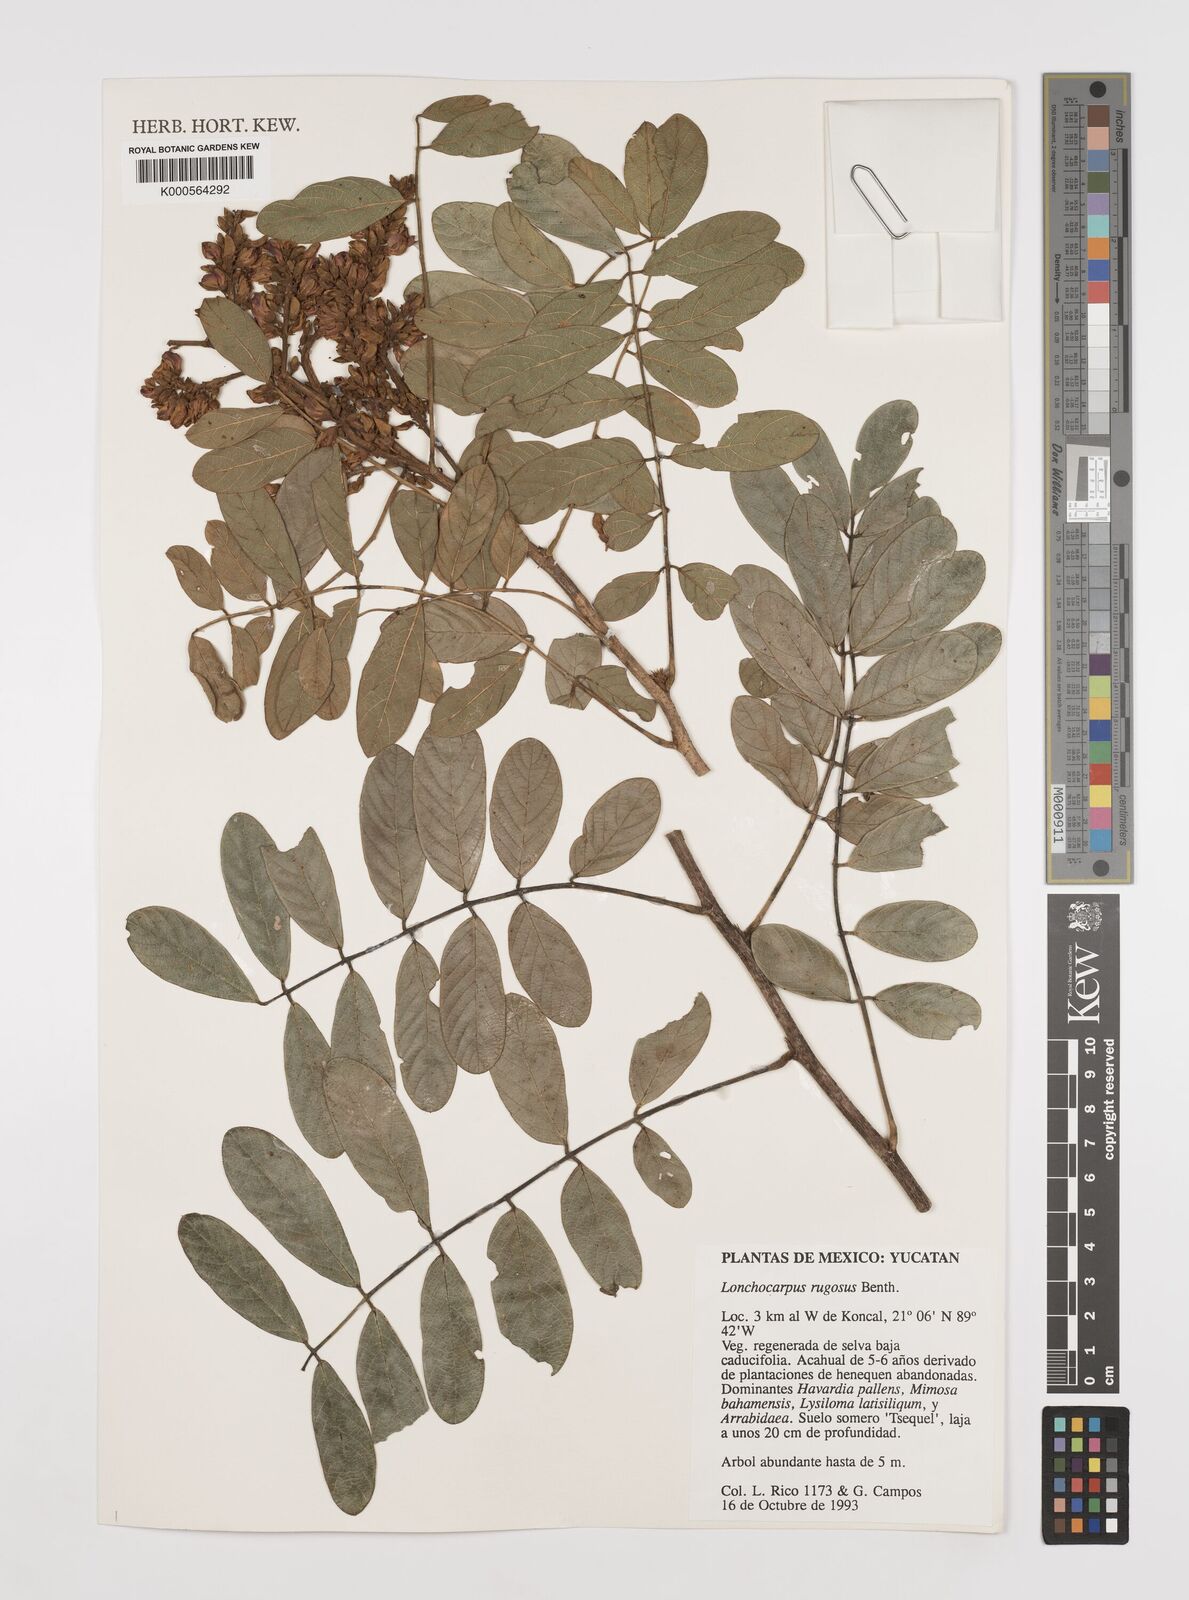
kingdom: Plantae
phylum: Tracheophyta
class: Magnoliopsida
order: Fabales
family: Fabaceae
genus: Lonchocarpus
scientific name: Lonchocarpus rugosus
